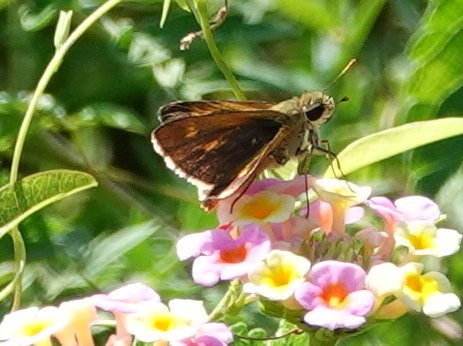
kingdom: Animalia
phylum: Arthropoda
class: Insecta
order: Lepidoptera
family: Hesperiidae
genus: Hylephila
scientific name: Hylephila phyleus
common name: Fiery Skipper
